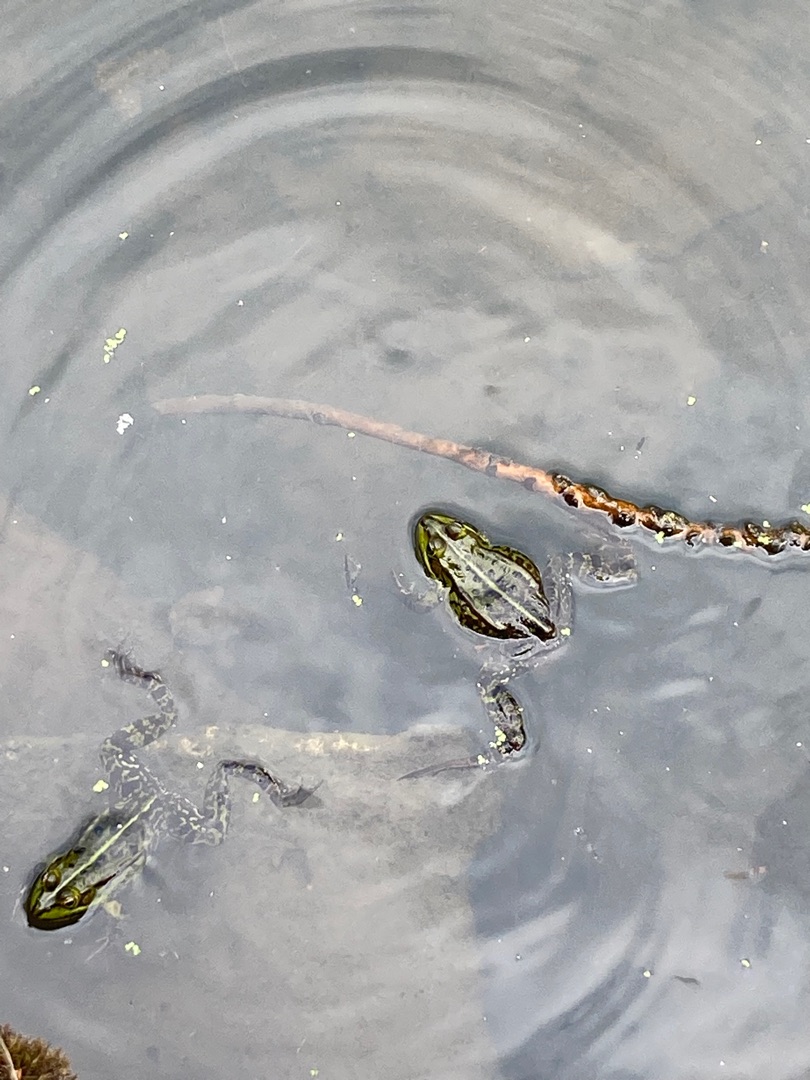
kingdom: Animalia
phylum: Chordata
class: Amphibia
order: Anura
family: Ranidae
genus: Pelophylax
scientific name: Pelophylax lessonae
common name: Grøn frø
